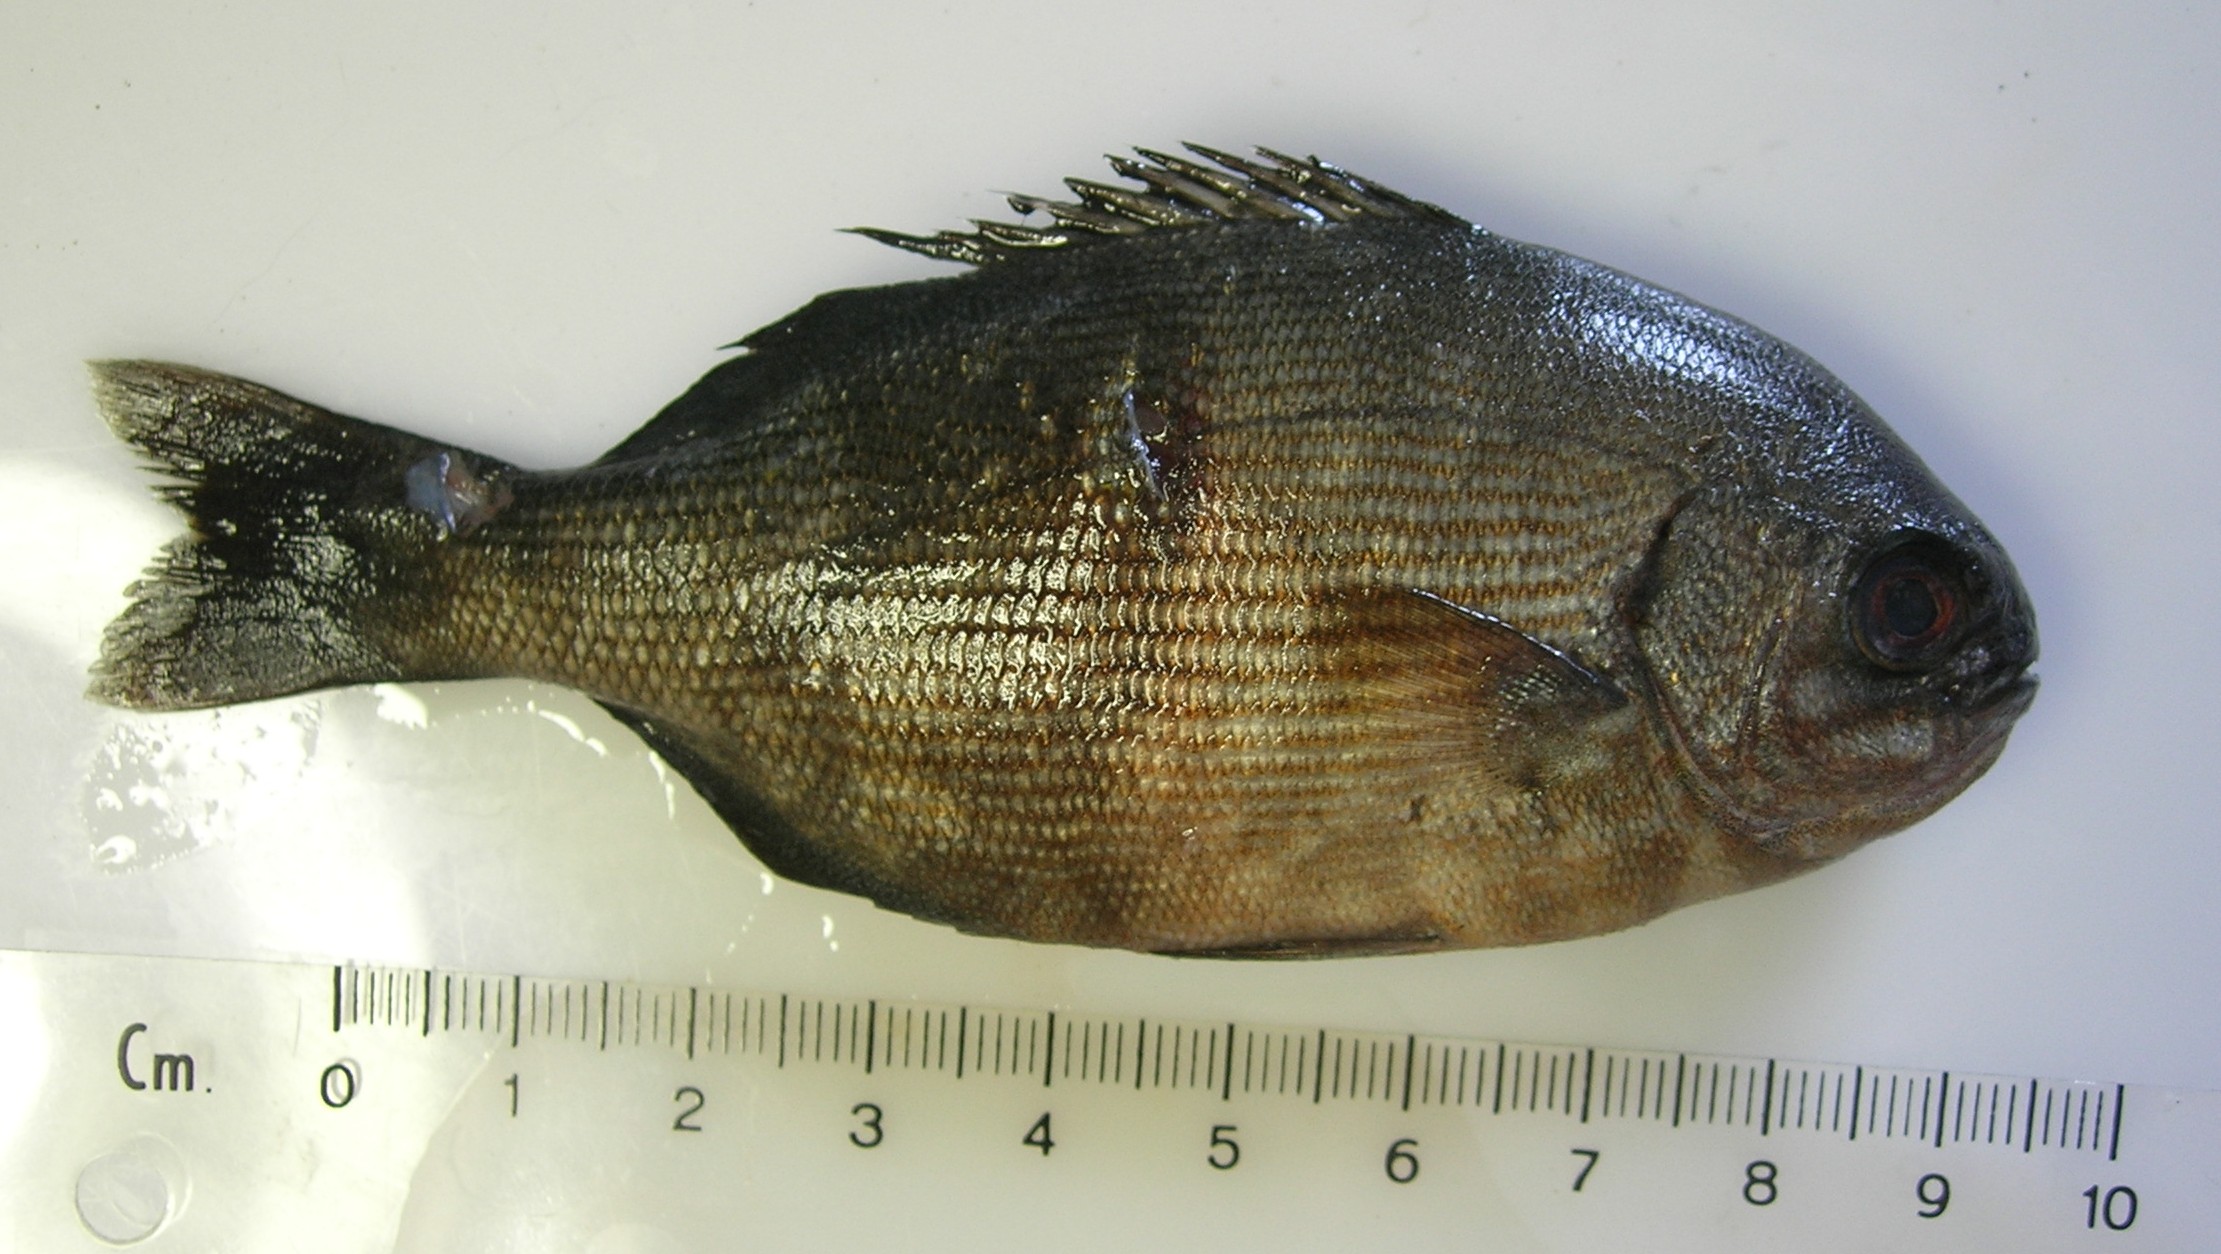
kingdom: Animalia
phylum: Chordata
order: Perciformes
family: Kyphosidae
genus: Kyphosus
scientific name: Kyphosus bigibbus
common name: Brown chub
